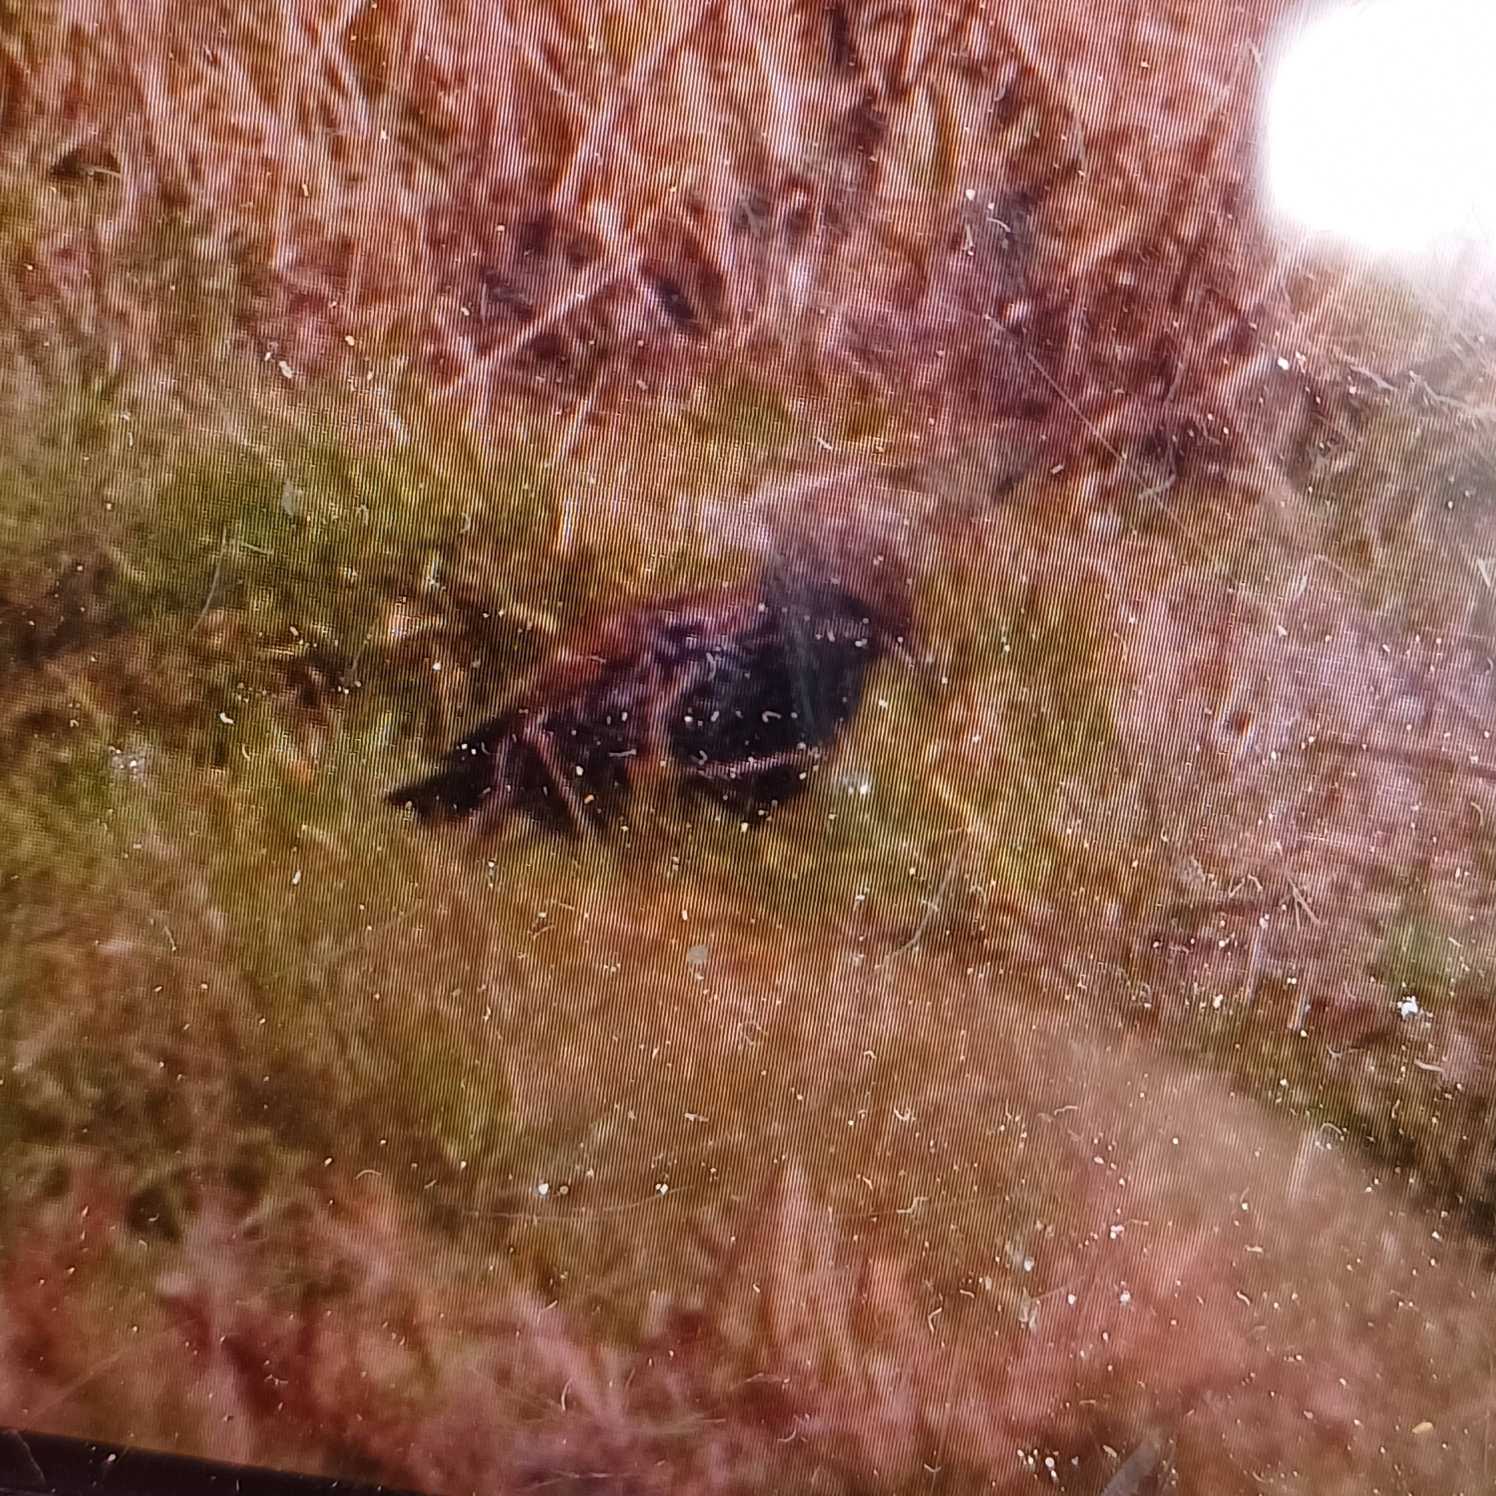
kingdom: Animalia
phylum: Chordata
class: Aves
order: Passeriformes
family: Sturnidae
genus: Sturnus
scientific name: Sturnus vulgaris
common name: Stær
